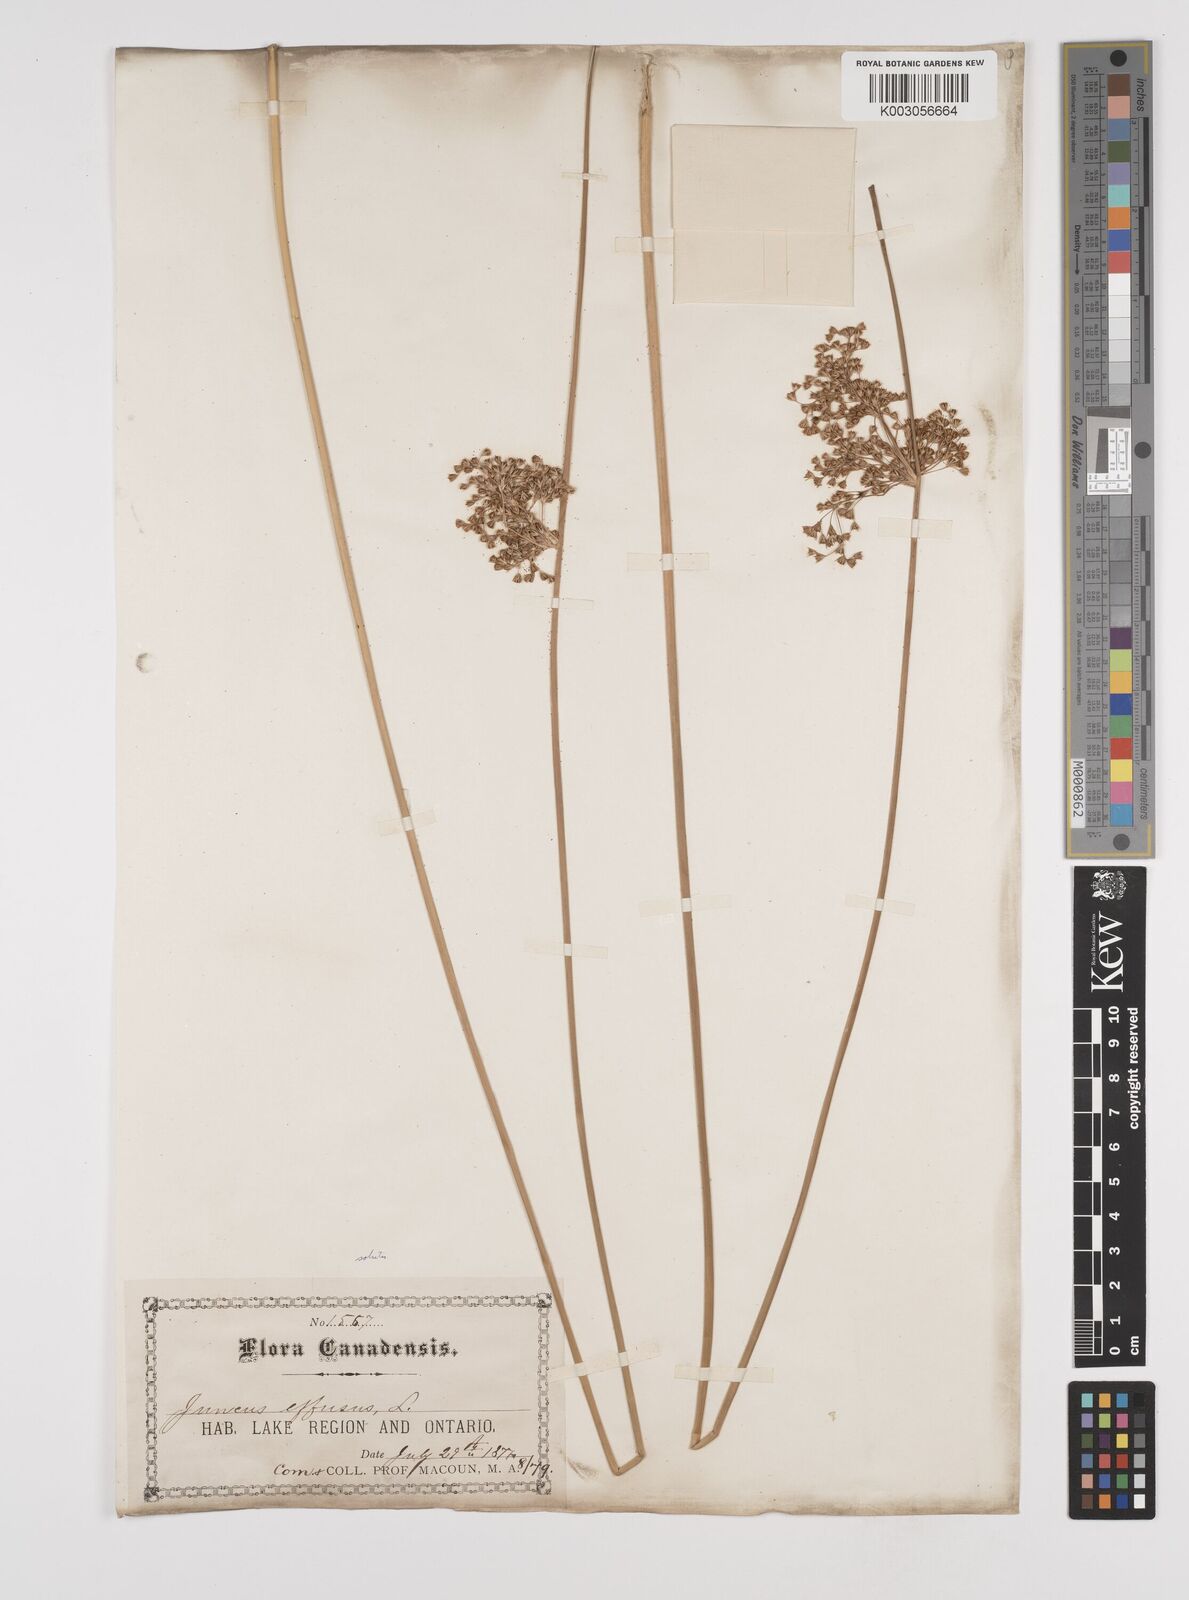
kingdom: Plantae
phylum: Tracheophyta
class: Liliopsida
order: Poales
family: Juncaceae
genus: Juncus
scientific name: Juncus effusus
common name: Soft rush
